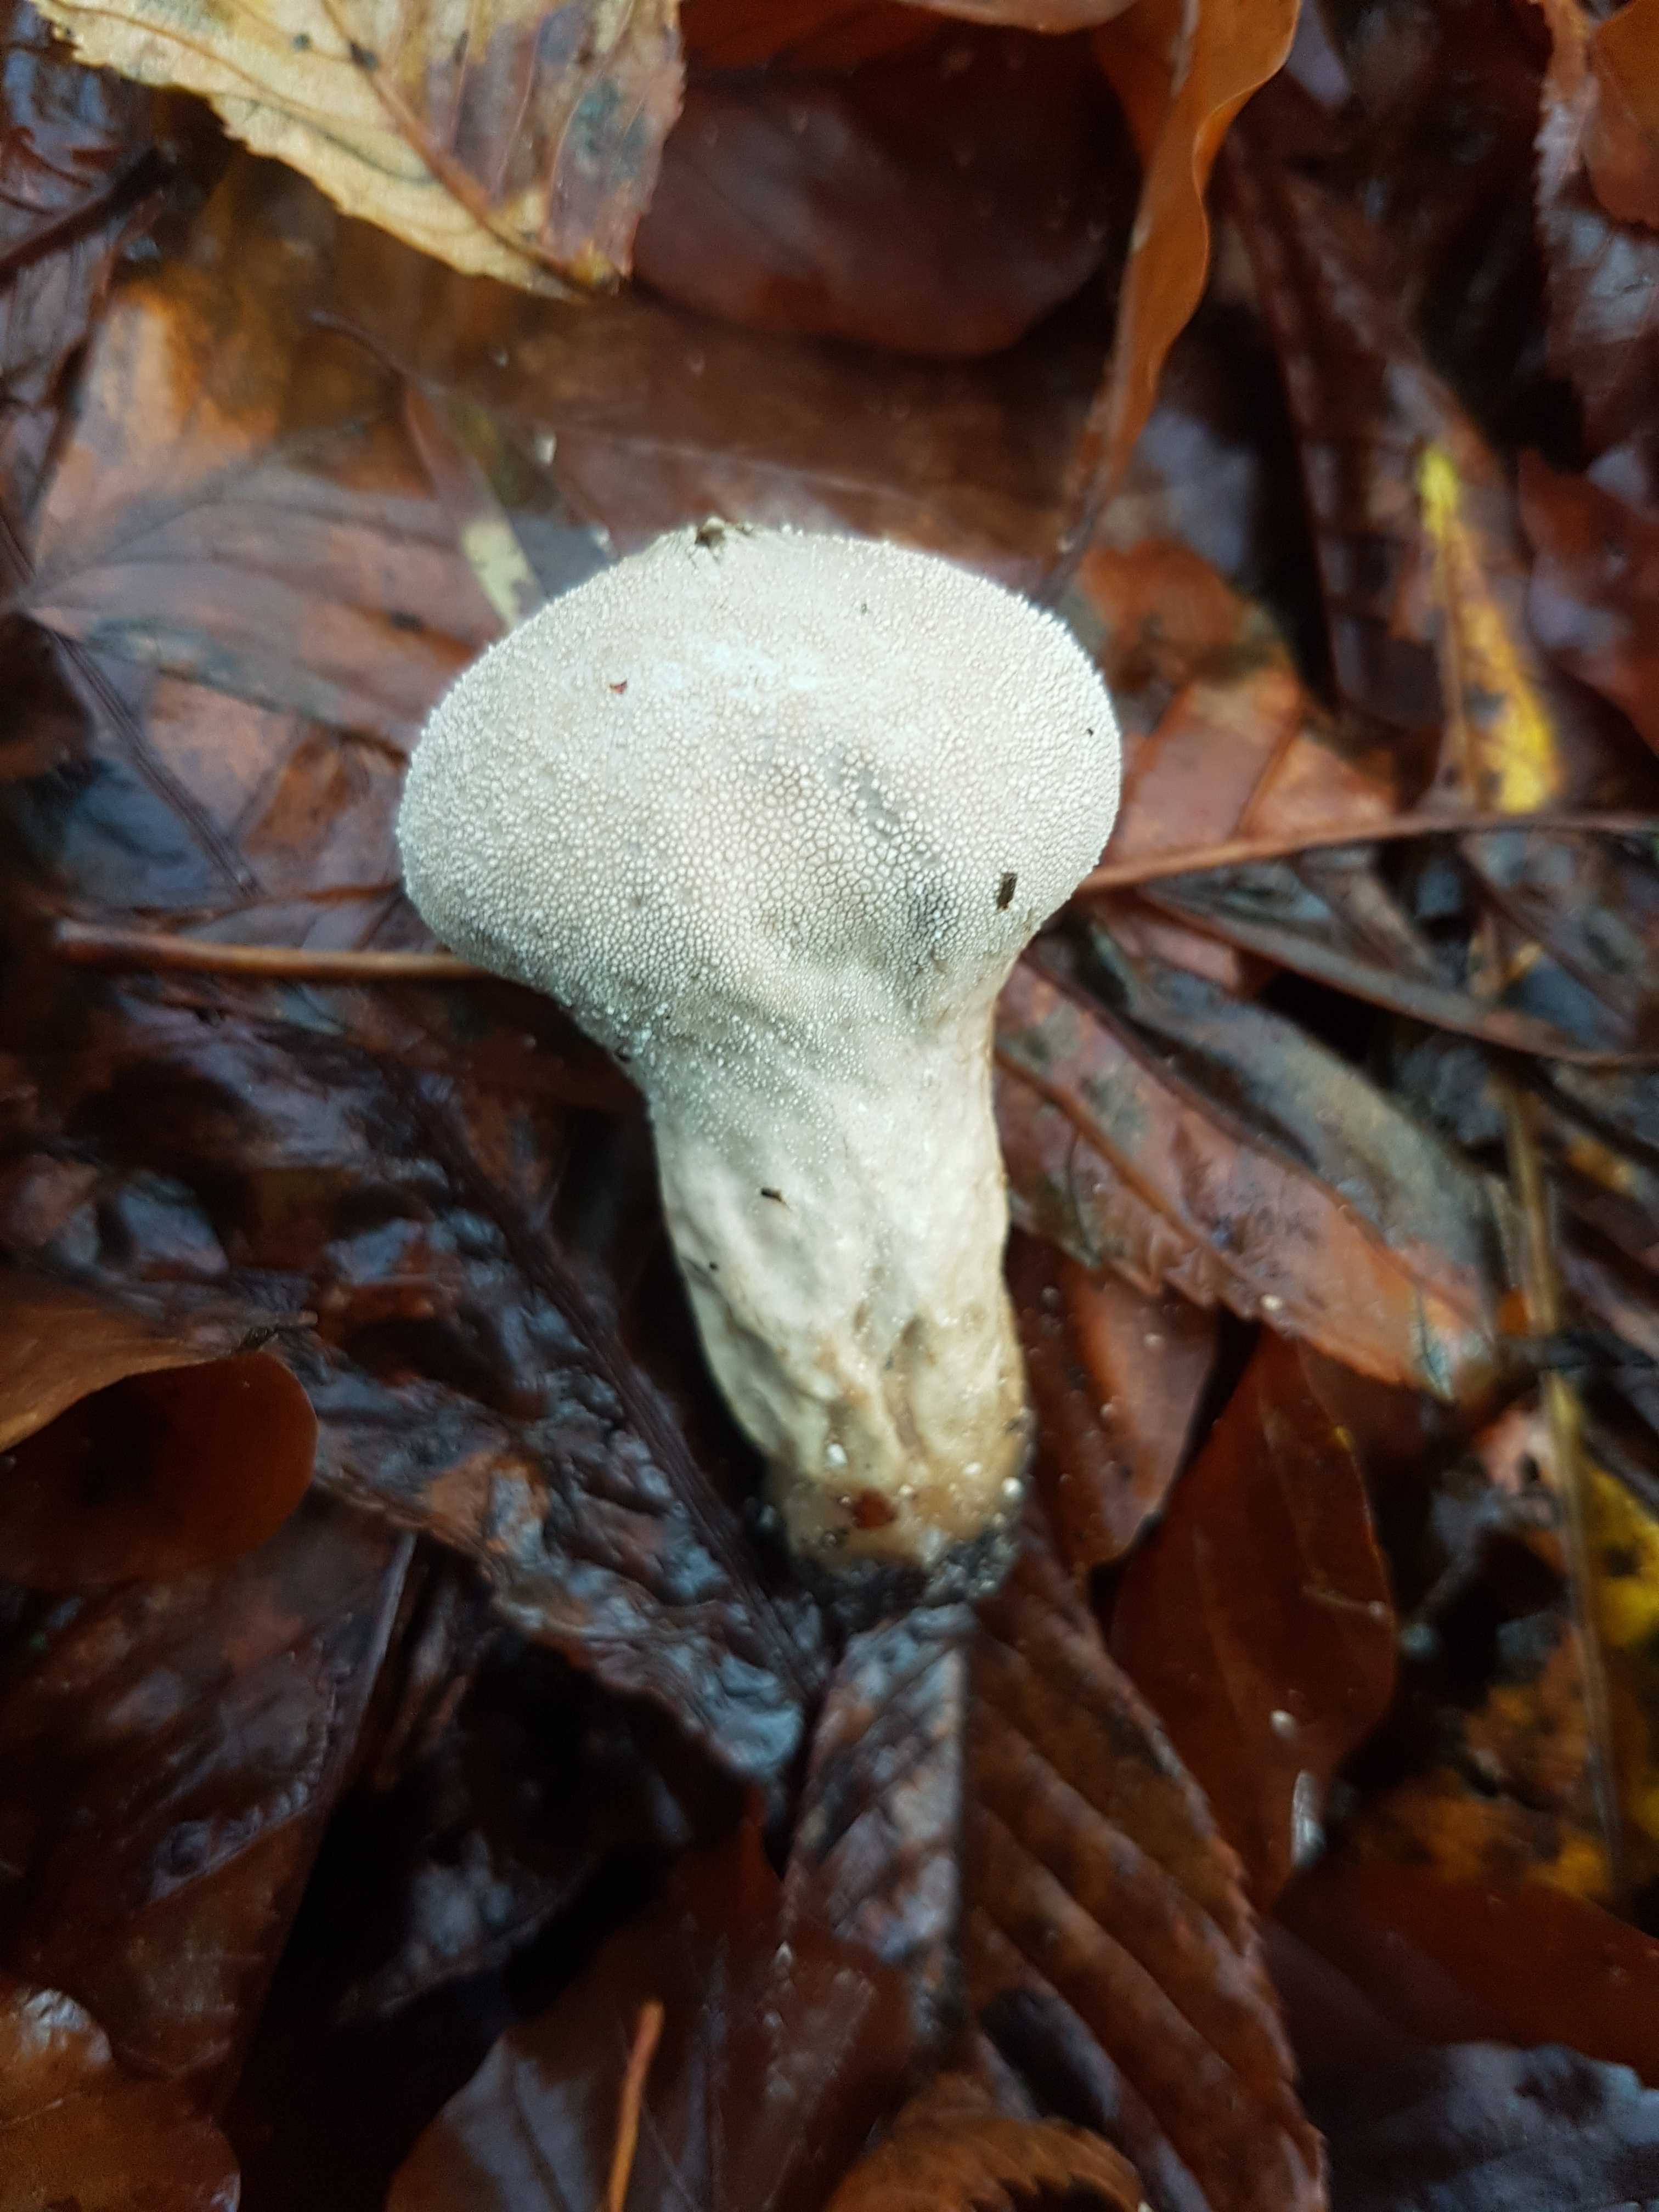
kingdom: Fungi
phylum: Basidiomycota
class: Agaricomycetes
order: Agaricales
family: Lycoperdaceae
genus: Lycoperdon
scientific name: Lycoperdon perlatum
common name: krystal-støvbold
